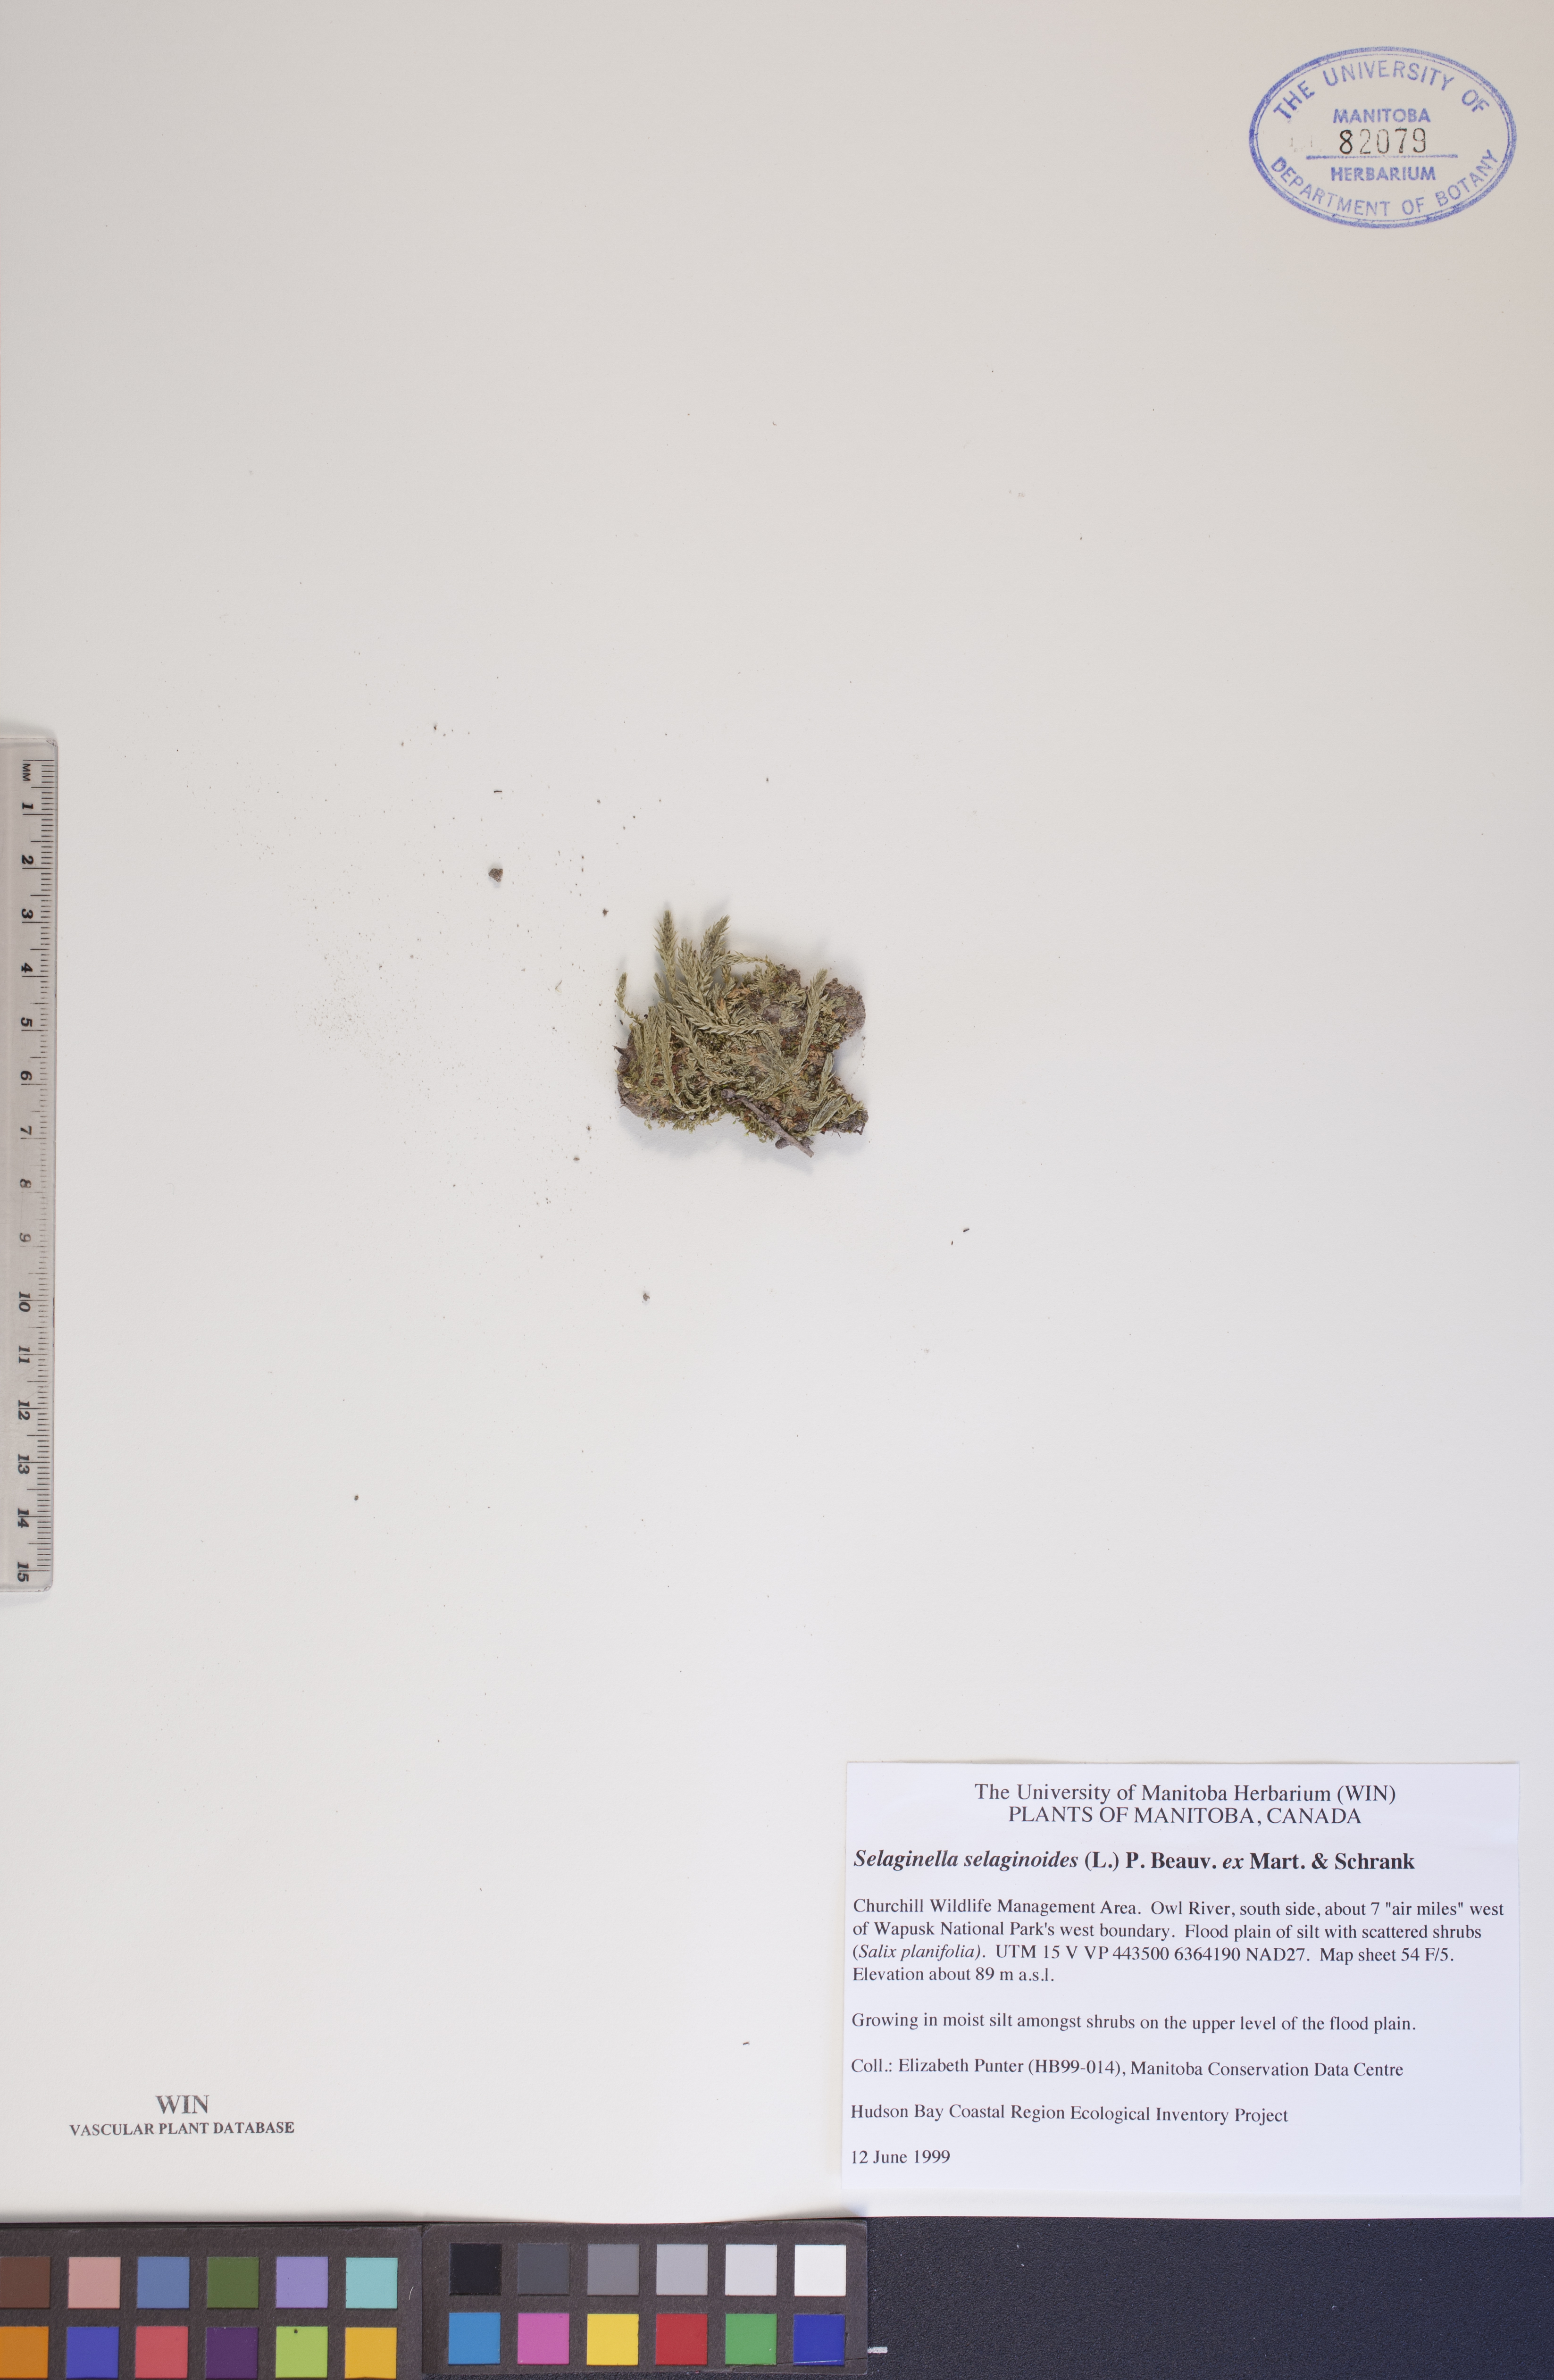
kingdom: Plantae
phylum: Tracheophyta
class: Lycopodiopsida
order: Selaginellales
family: Selaginellaceae
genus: Selaginella
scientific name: Selaginella selaginoides
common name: Prickly mountain-moss
